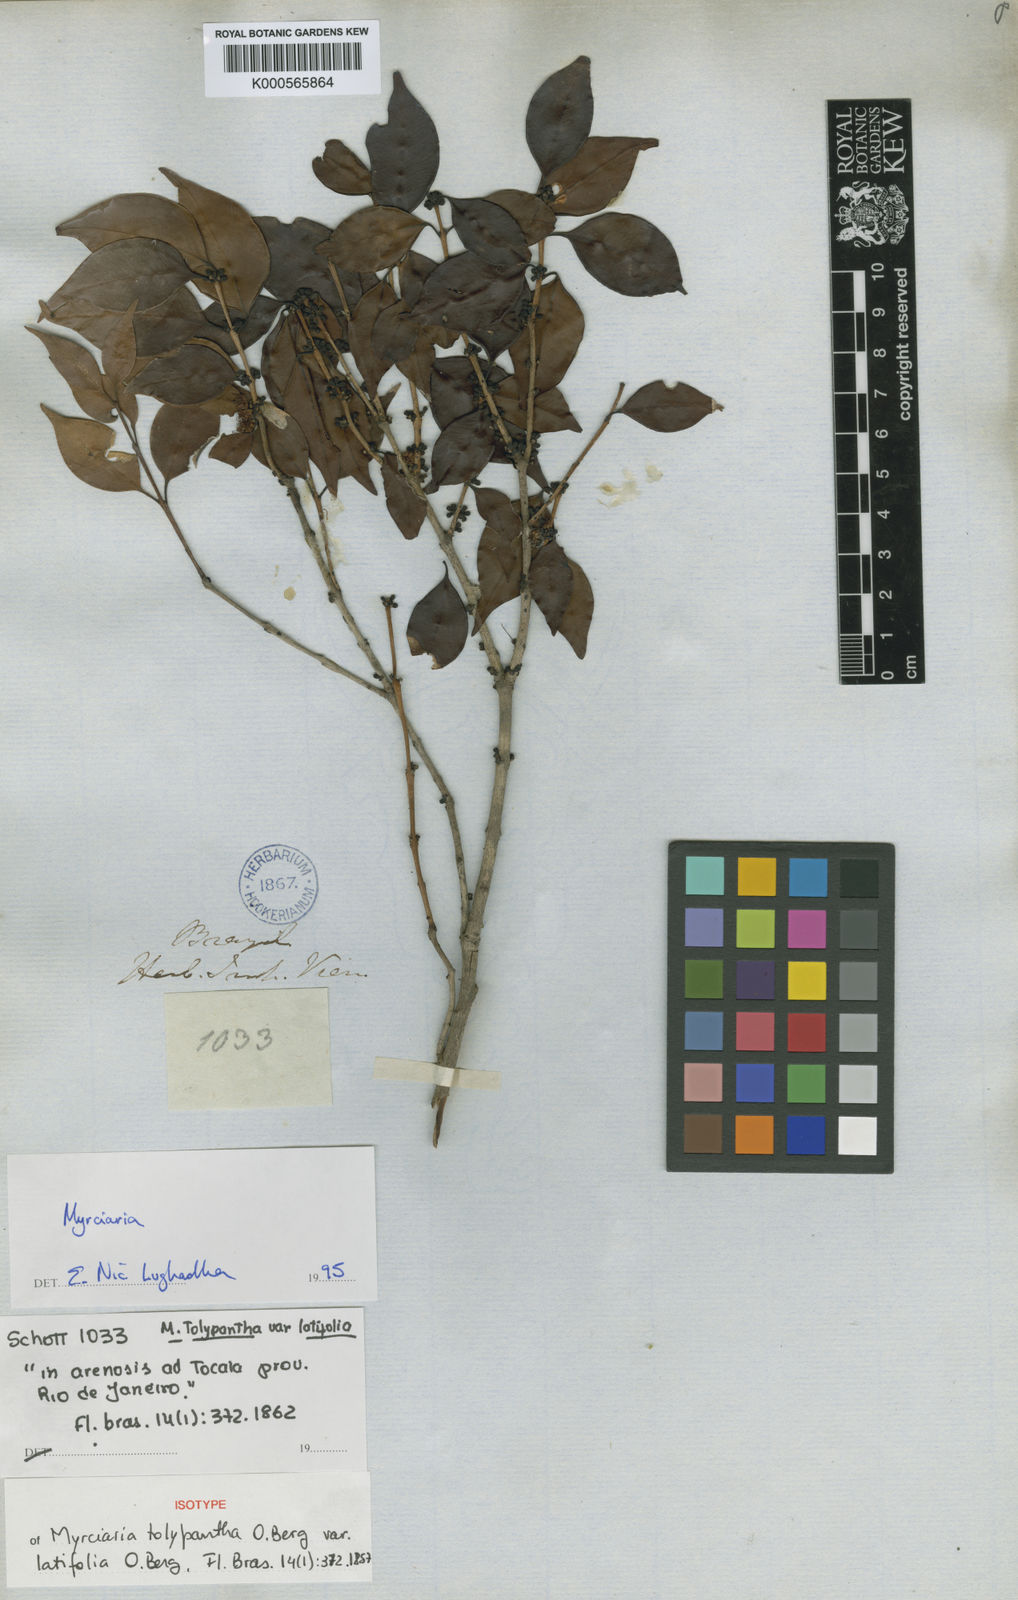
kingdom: Plantae
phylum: Tracheophyta
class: Magnoliopsida
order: Myrtales
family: Myrtaceae
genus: Myrciaria
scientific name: Myrciaria floribunda
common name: Guavaberry
